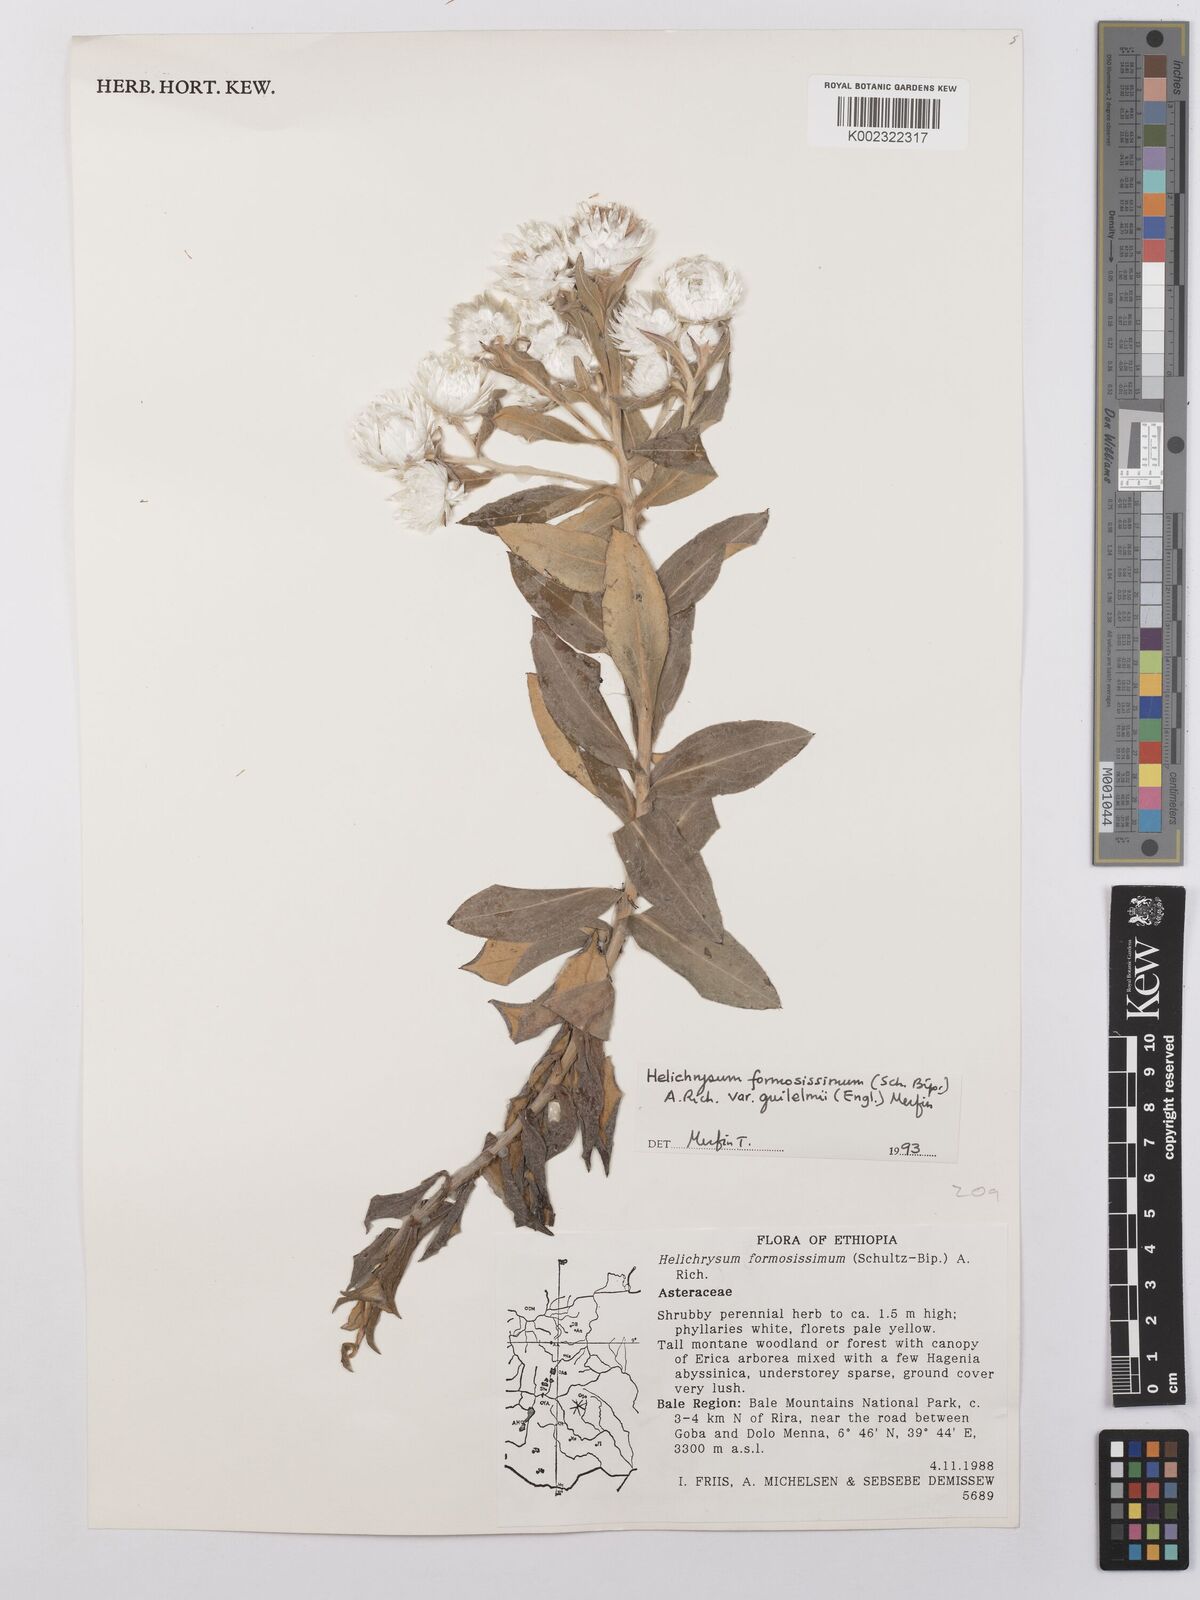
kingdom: Plantae
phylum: Tracheophyta
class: Magnoliopsida
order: Asterales
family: Asteraceae
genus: Helichrysum
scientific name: Helichrysum formosissimum
